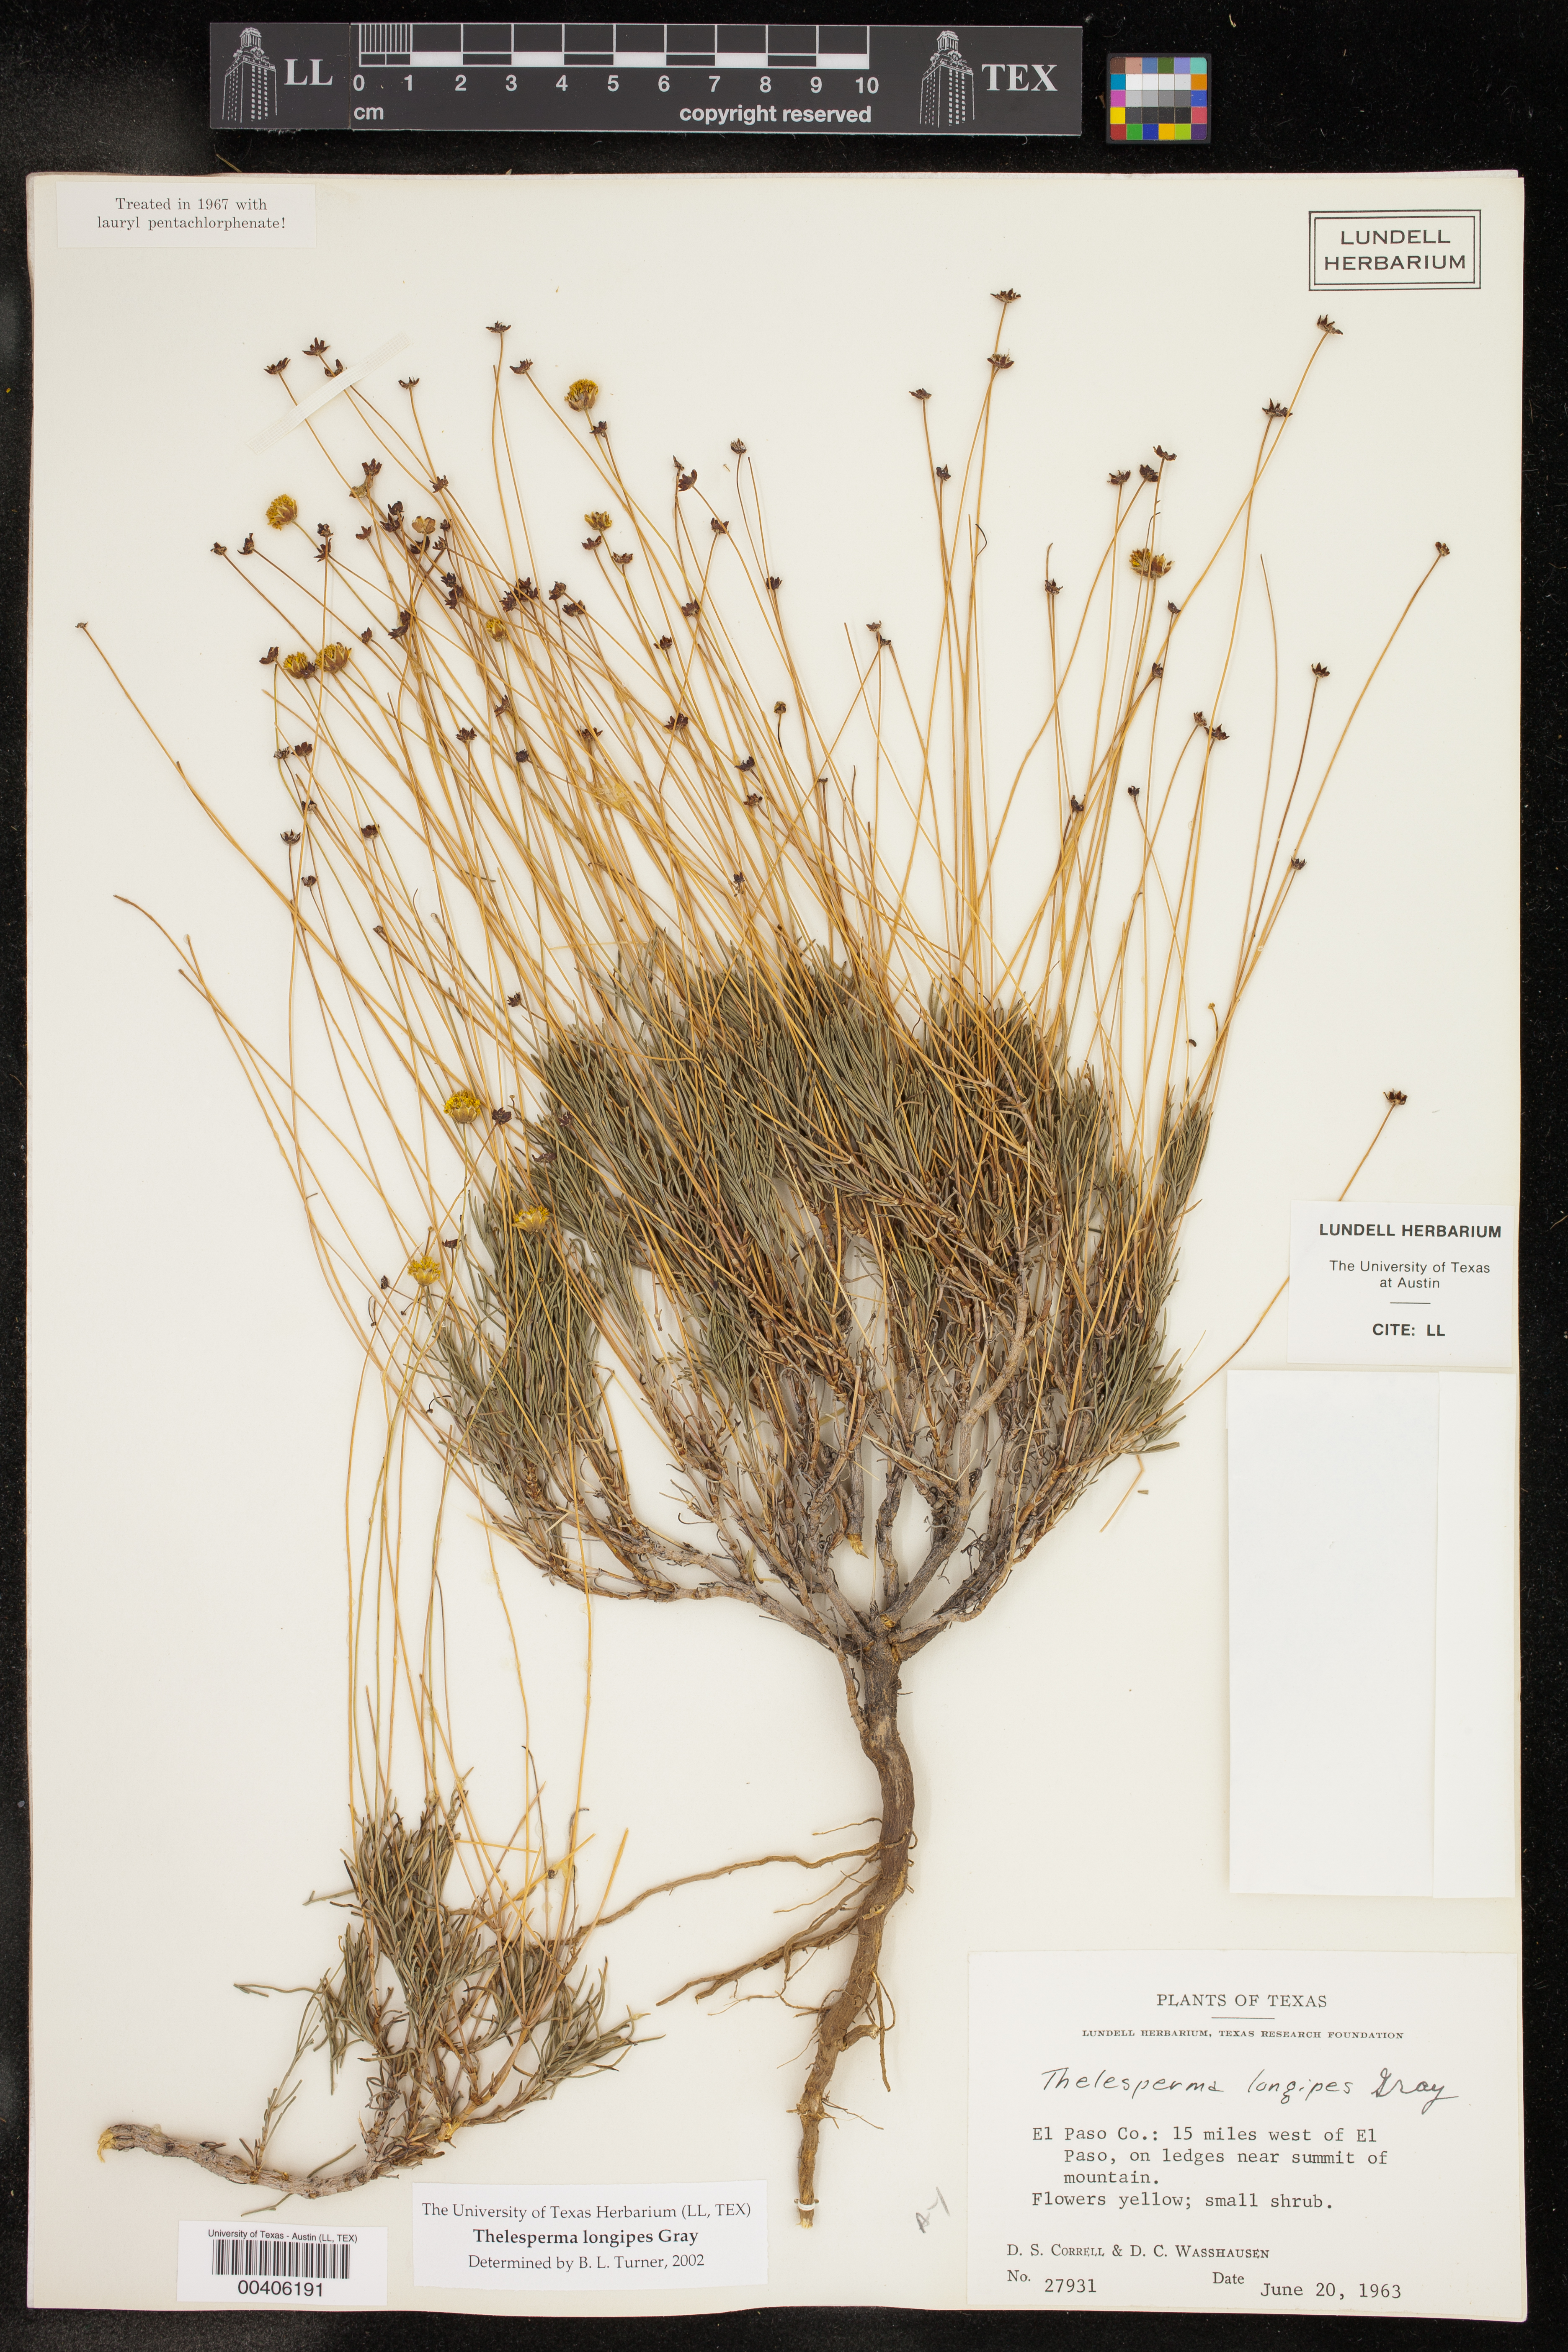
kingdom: Plantae
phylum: Tracheophyta
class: Magnoliopsida
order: Asterales
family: Asteraceae
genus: Thelesperma
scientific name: Thelesperma longipes
